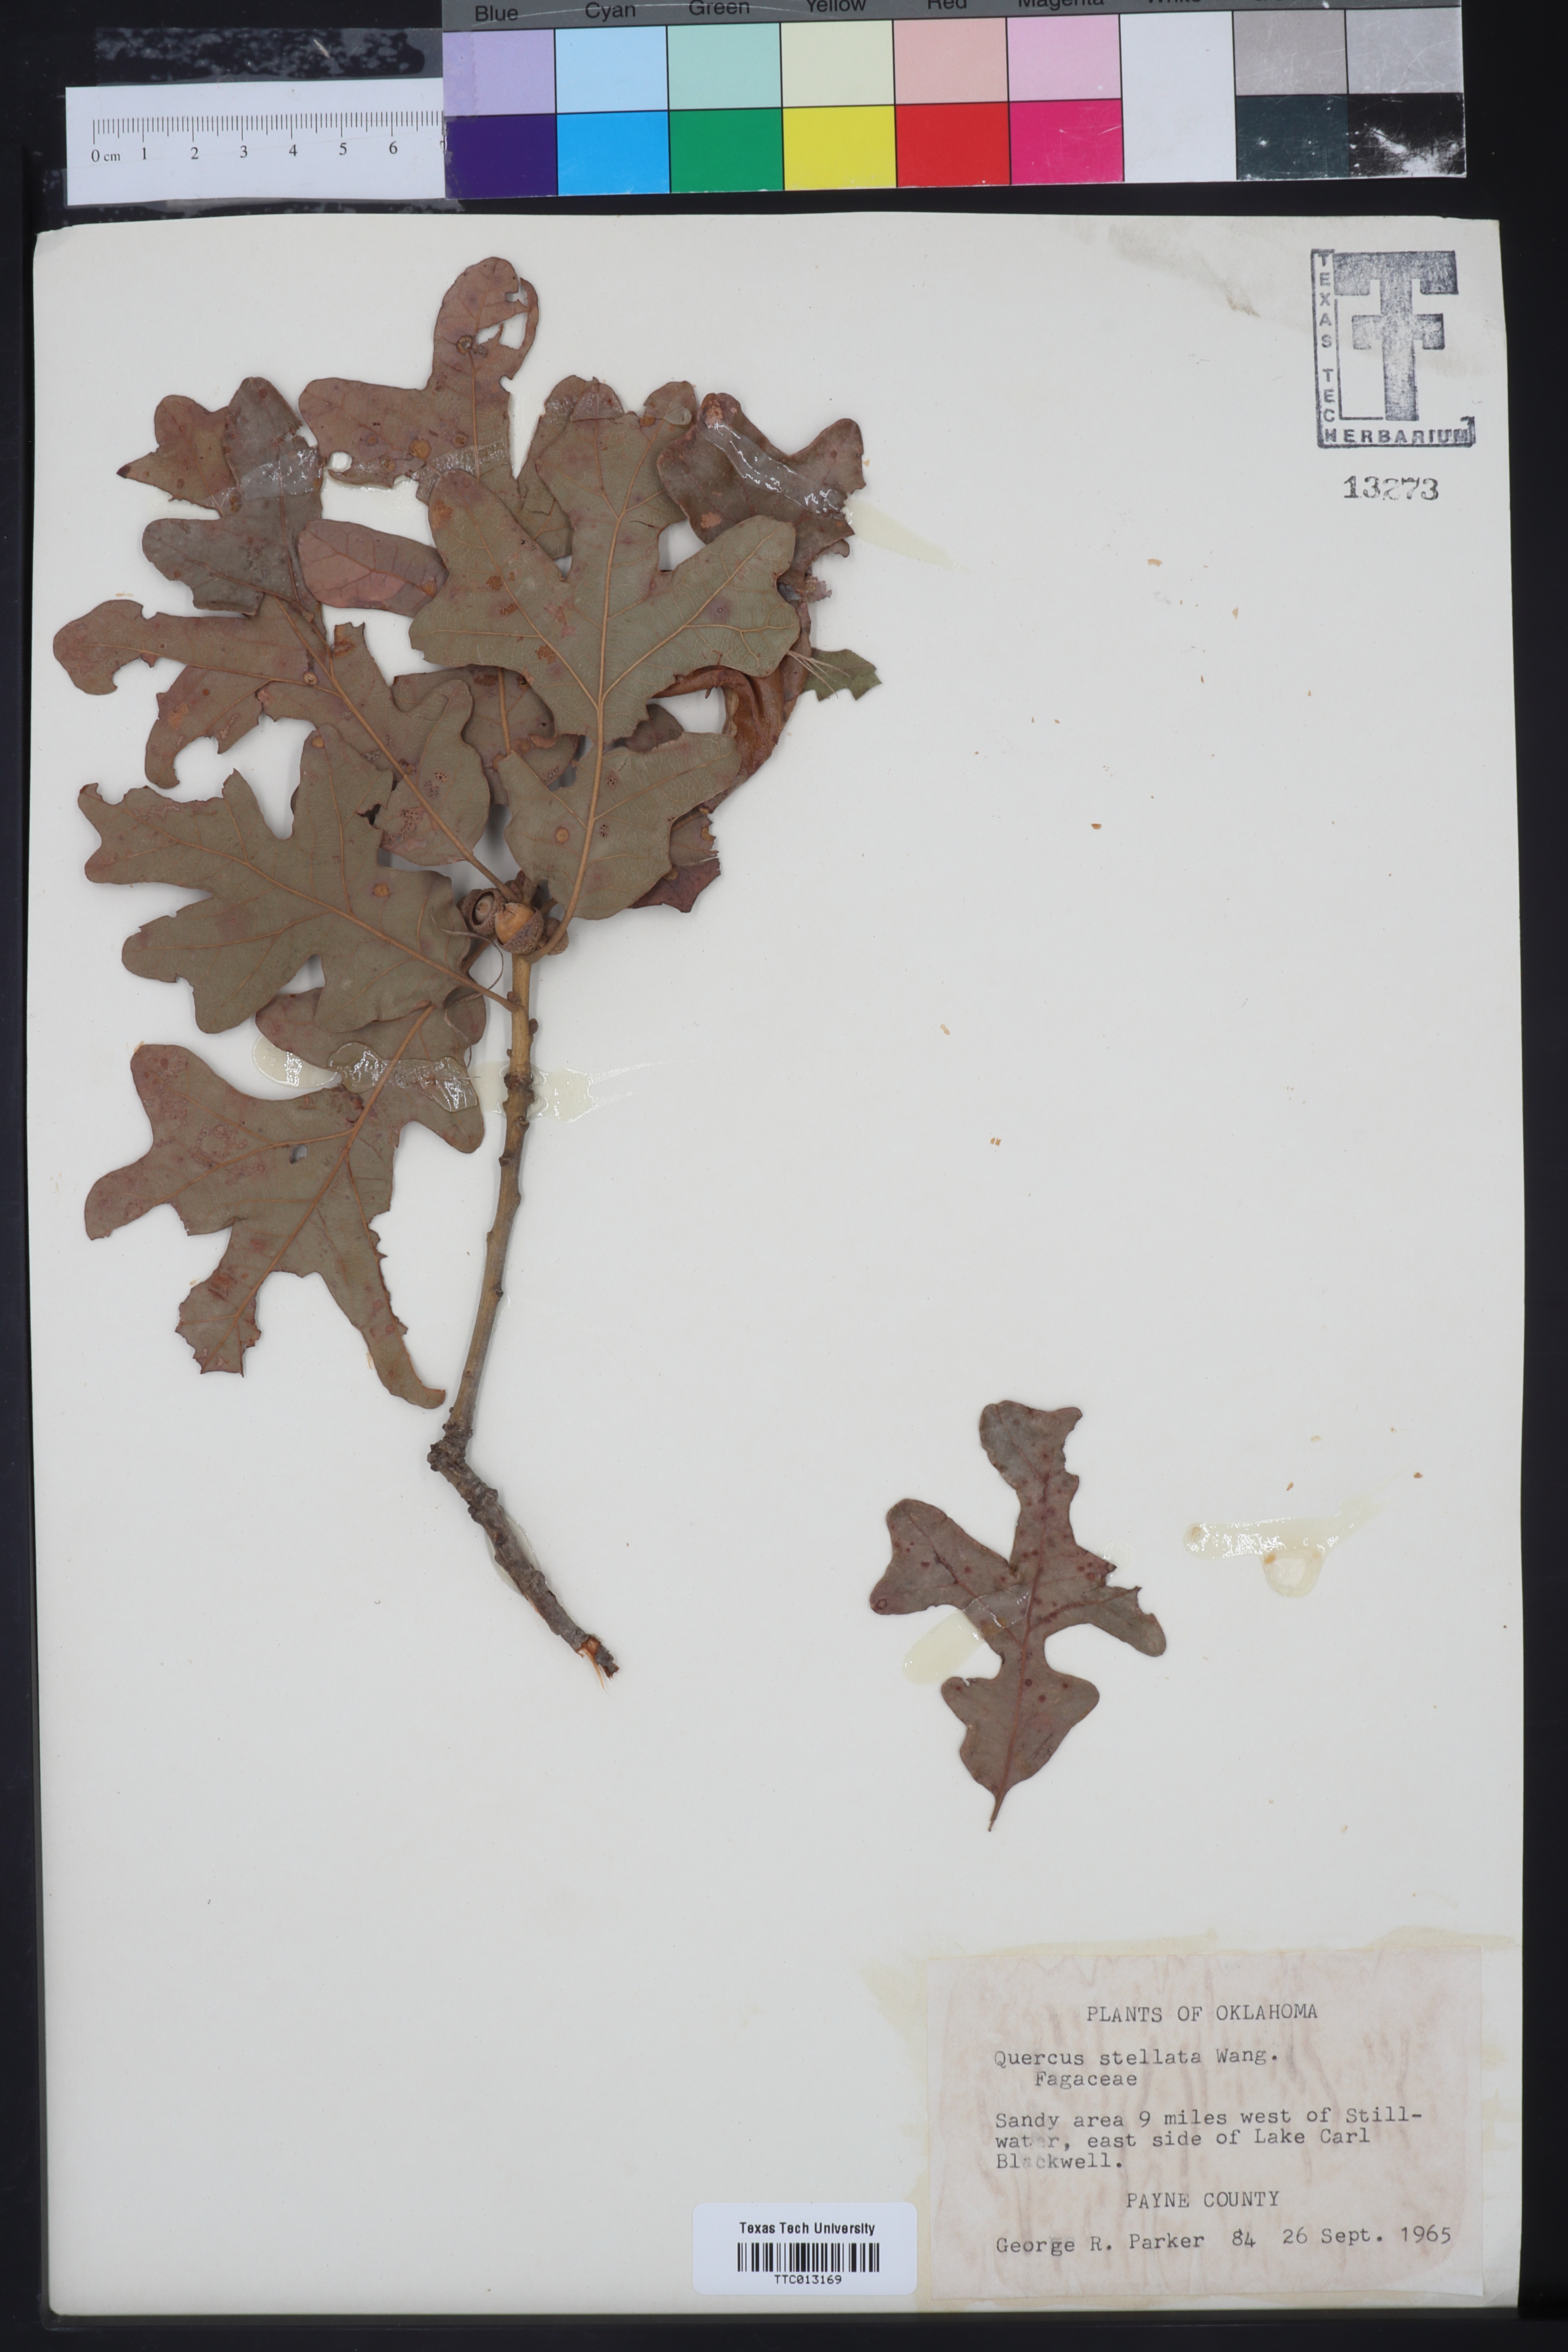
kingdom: Plantae
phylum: Tracheophyta
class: Magnoliopsida
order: Fagales
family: Fagaceae
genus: Quercus
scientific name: Quercus stellata
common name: Post oak
